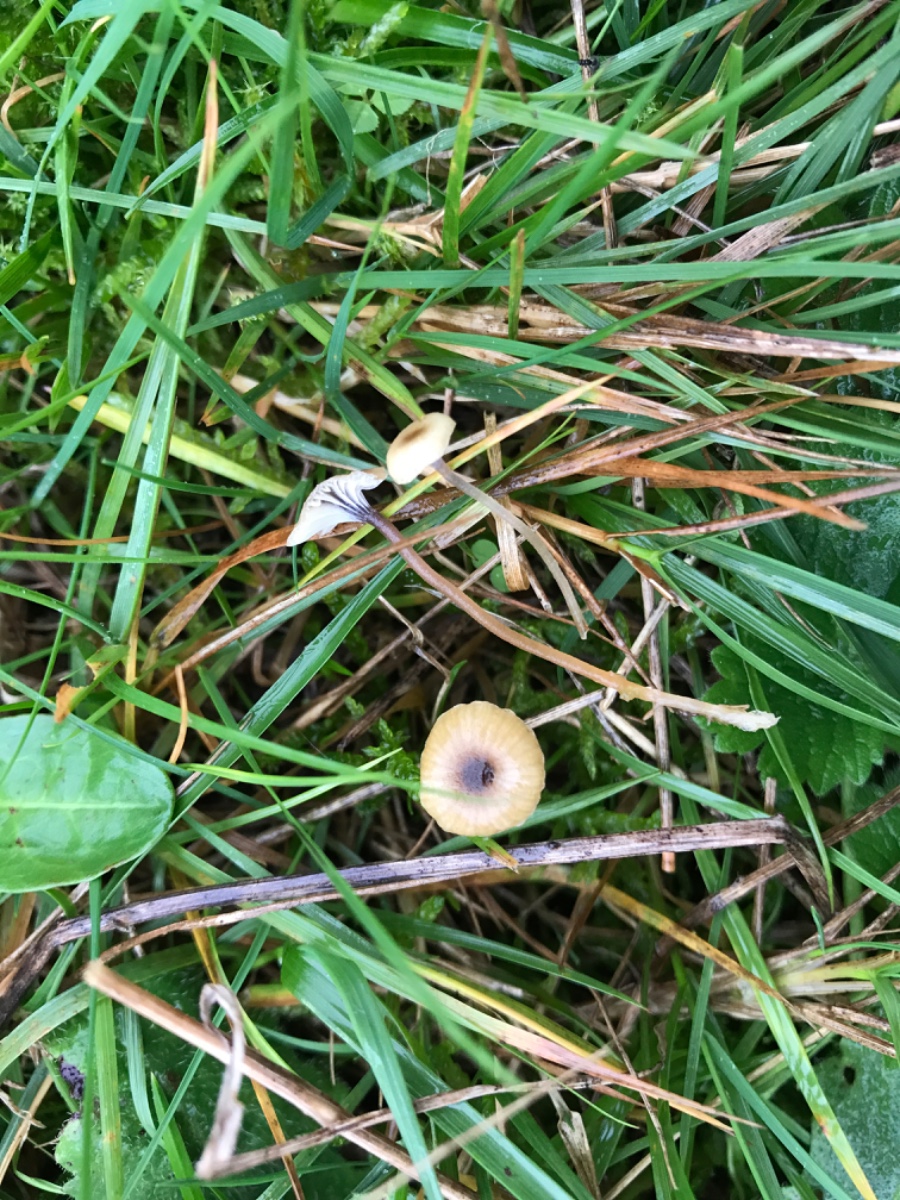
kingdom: Fungi
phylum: Basidiomycota
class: Agaricomycetes
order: Hymenochaetales
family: Rickenellaceae
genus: Rickenella
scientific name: Rickenella swartzii
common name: finstokket mosnavlehat
